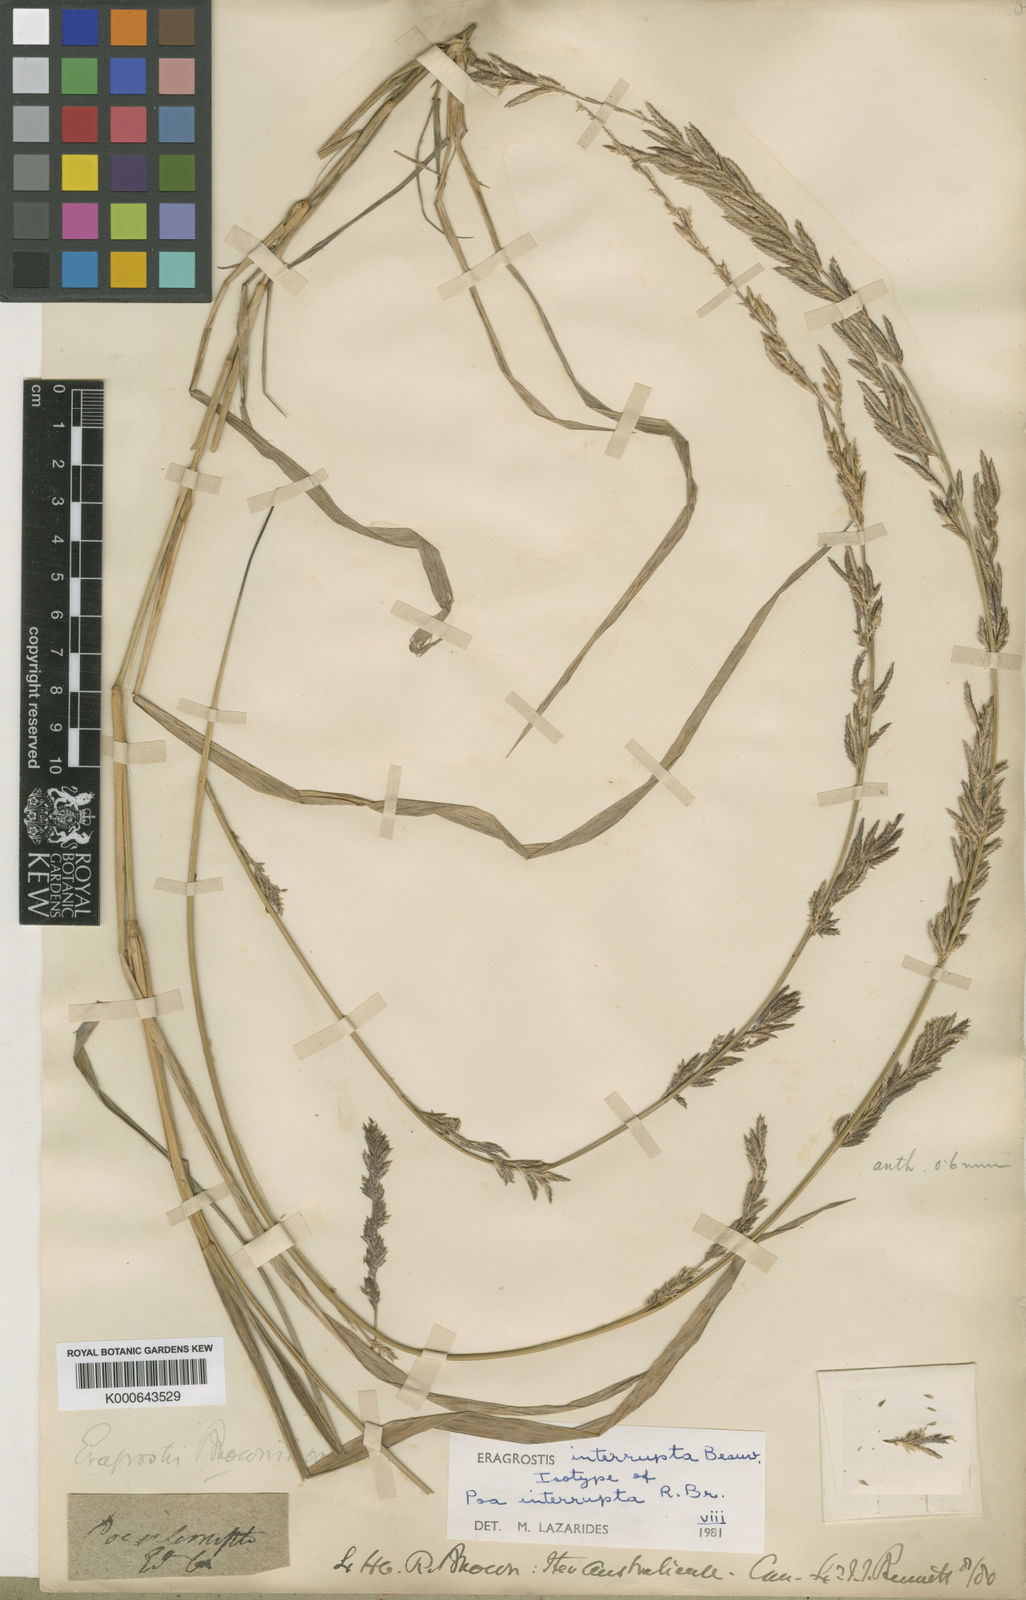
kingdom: Plantae
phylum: Tracheophyta
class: Liliopsida
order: Poales
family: Poaceae
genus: Eragrostis
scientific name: Eragrostis interrupta
